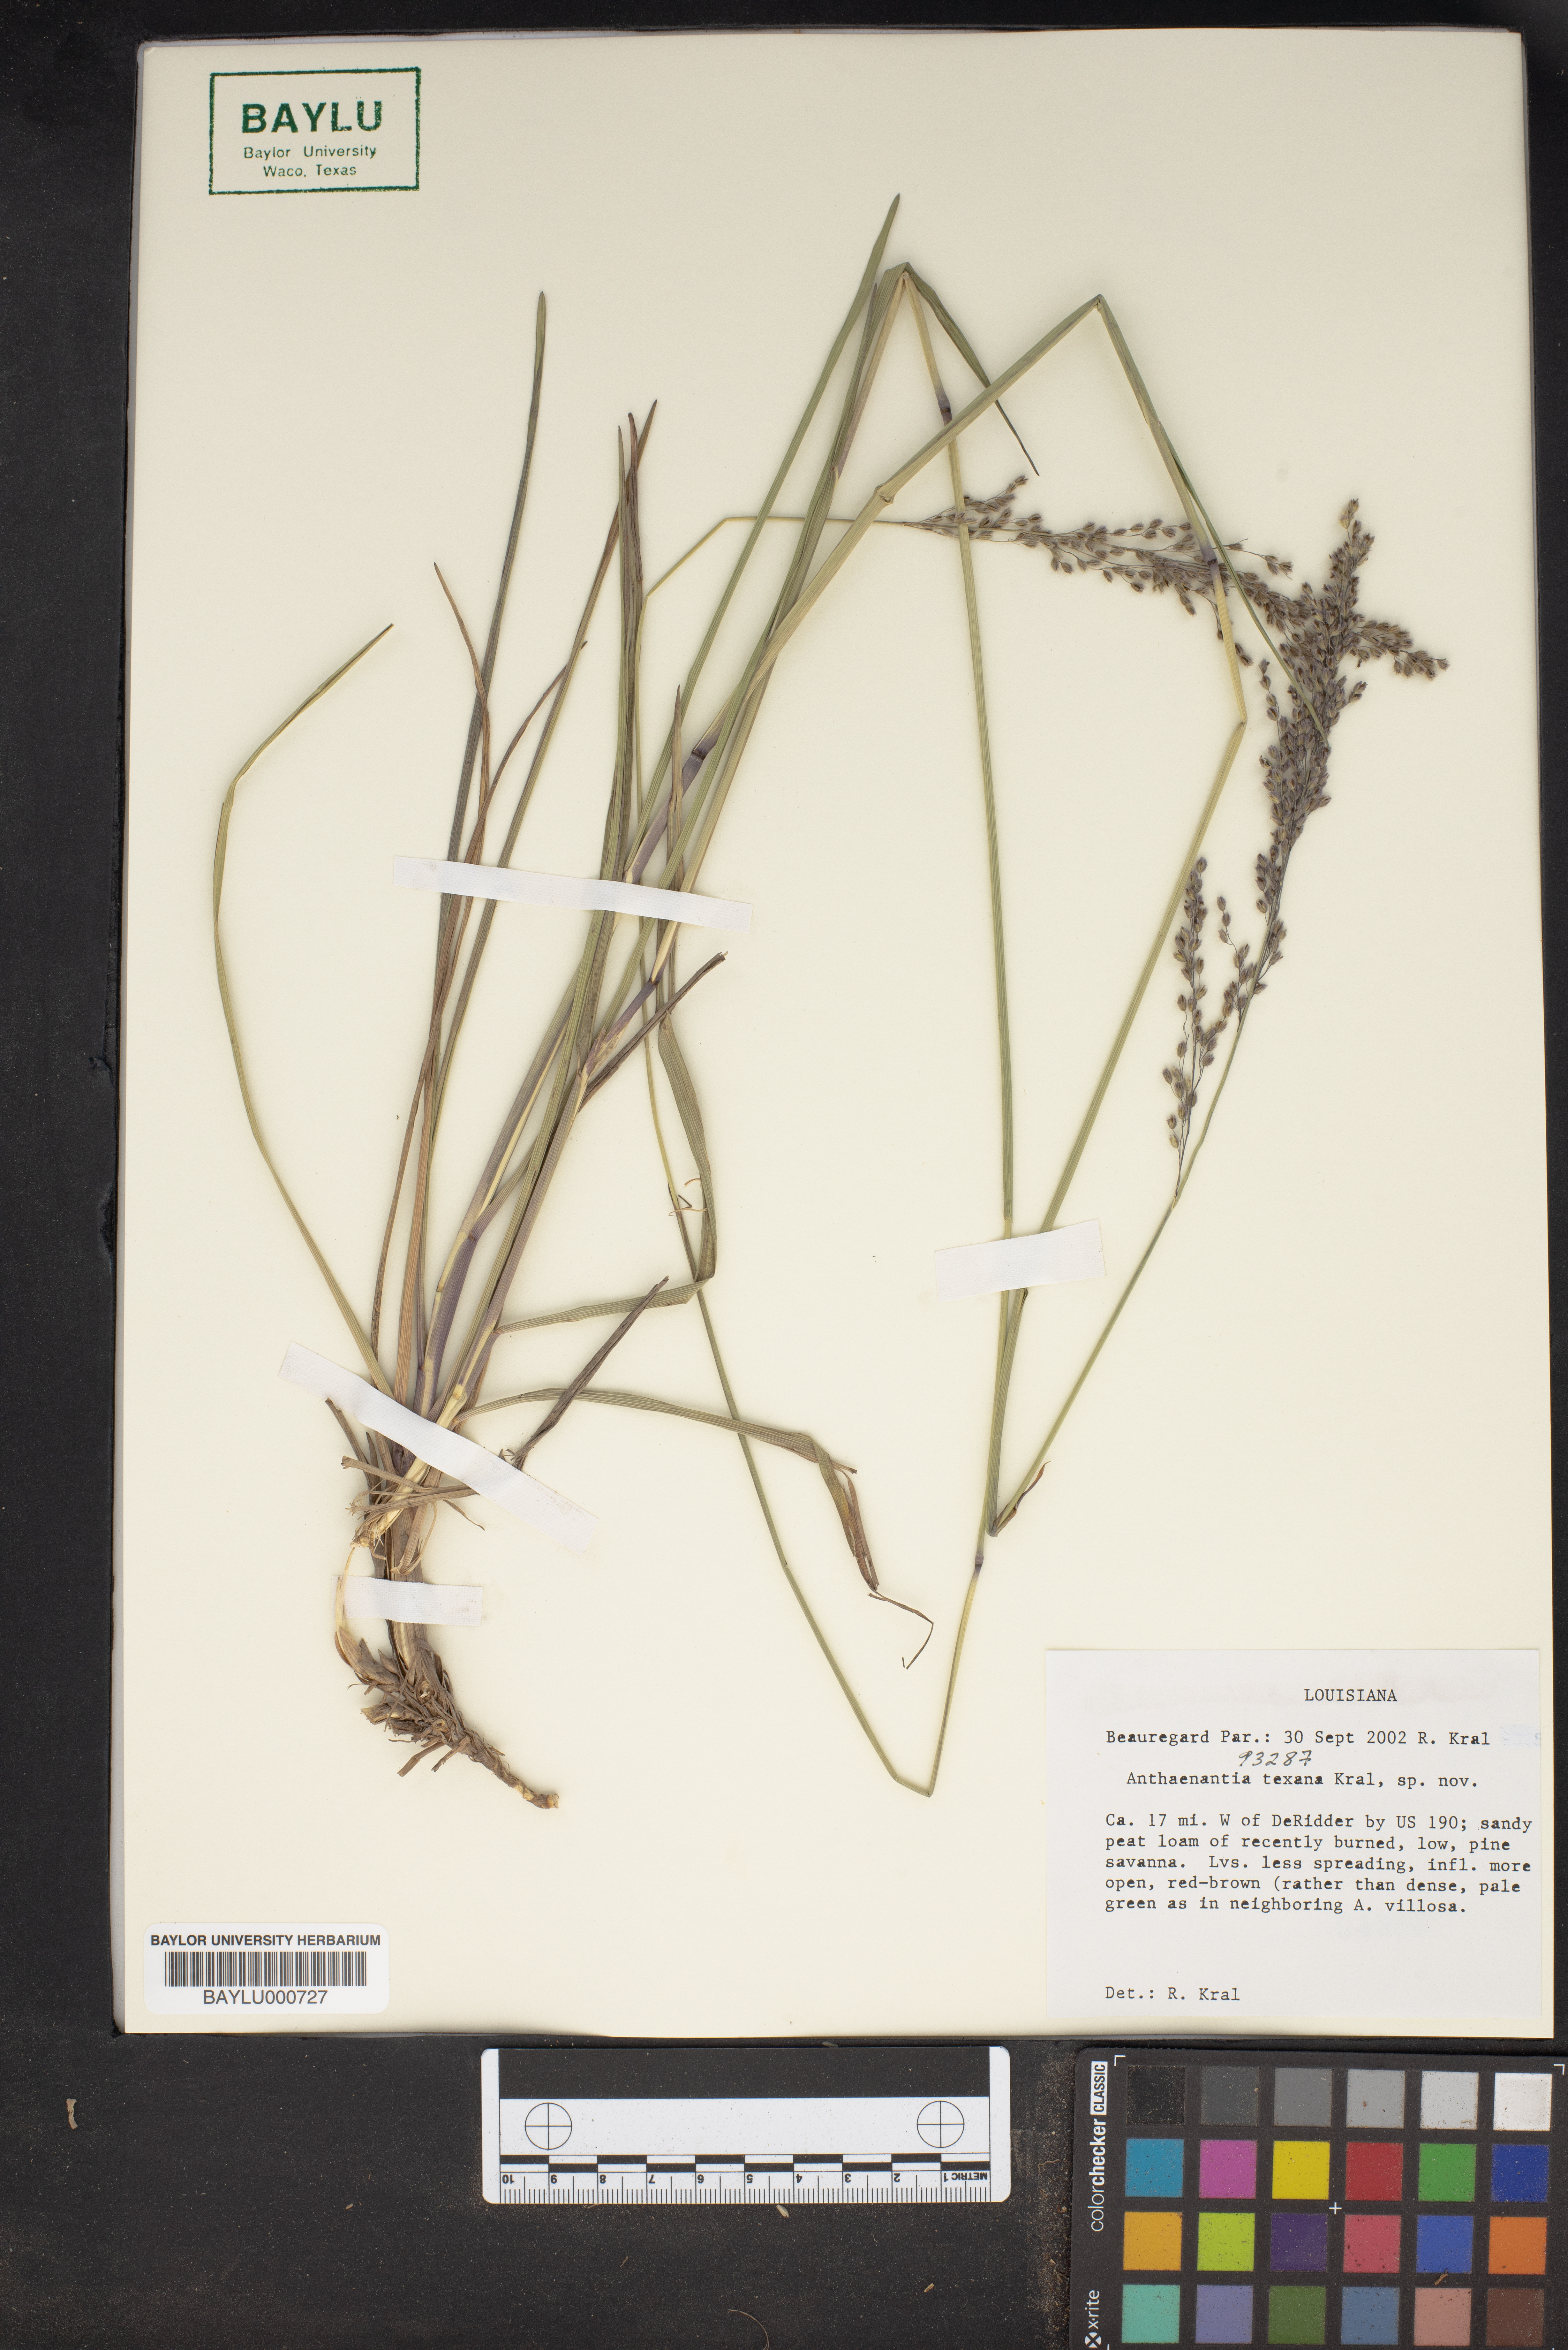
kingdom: Plantae
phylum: Tracheophyta
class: Liliopsida
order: Poales
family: Poaceae
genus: Anthaenantia
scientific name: Anthaenantia texana
